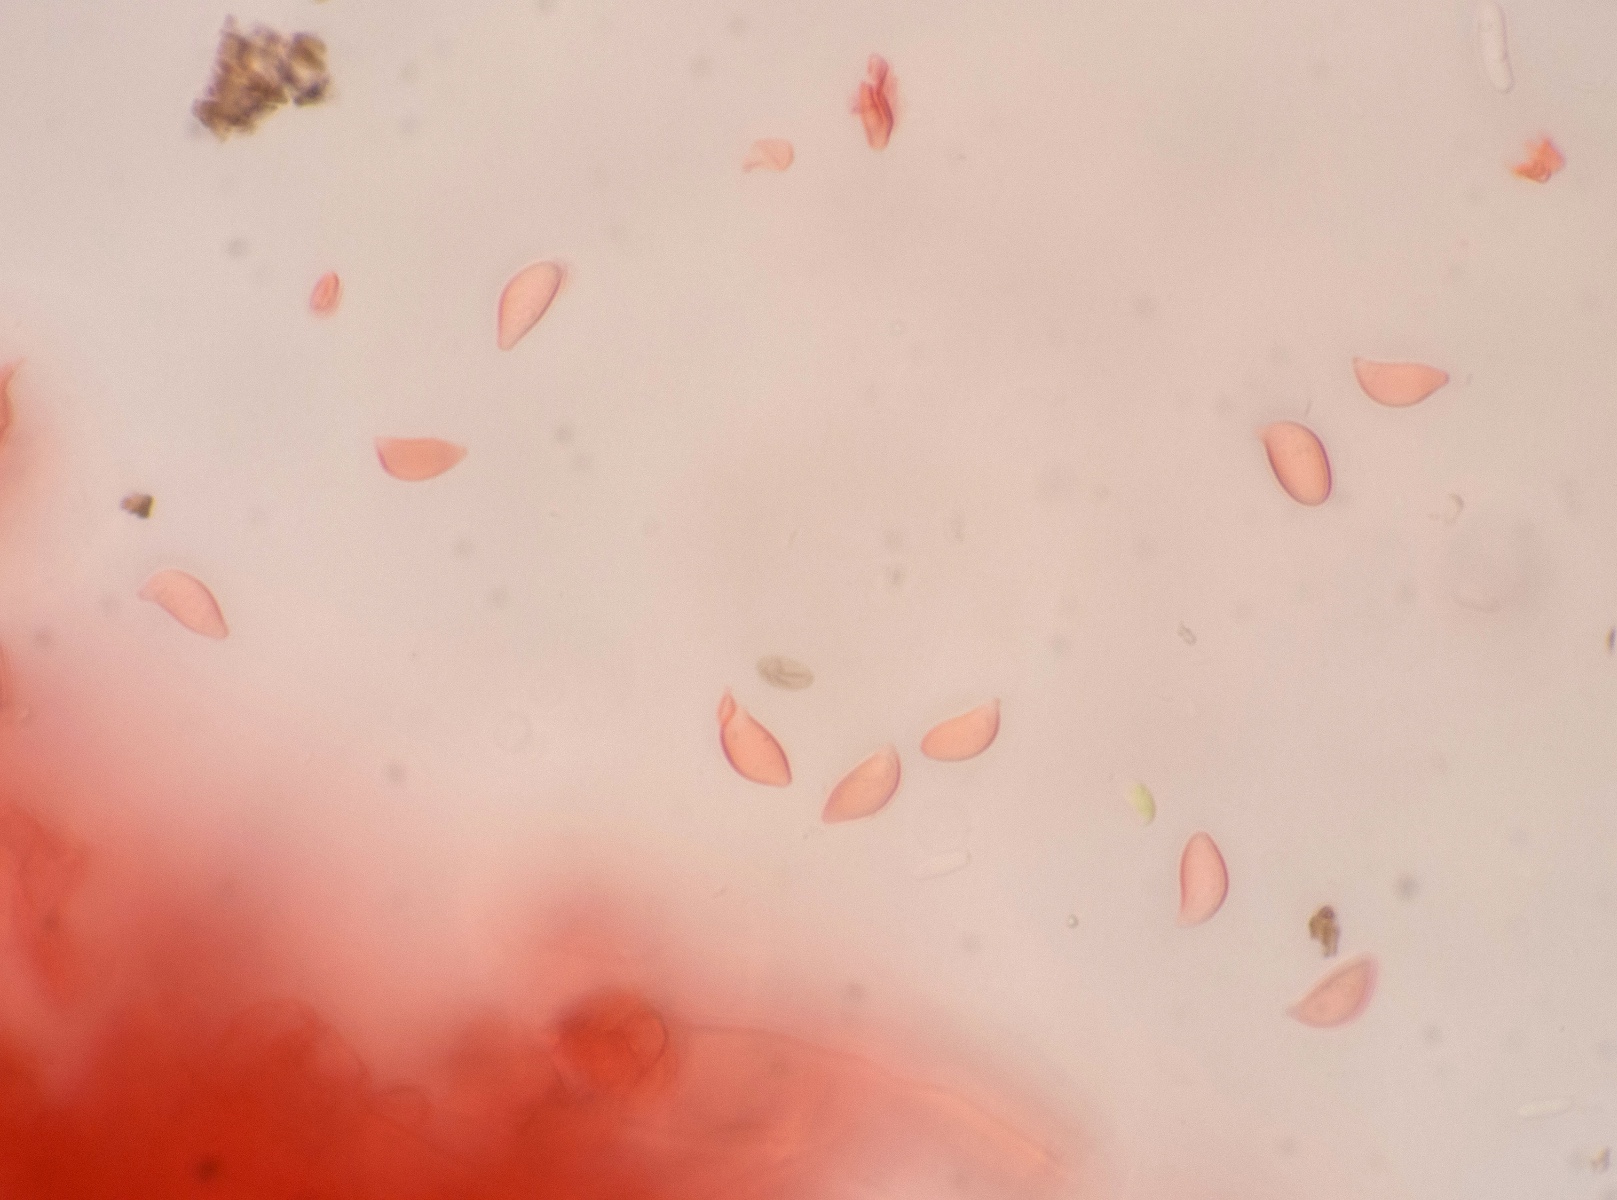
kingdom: Fungi
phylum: Basidiomycota
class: Agaricomycetes
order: Cantharellales
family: Botryobasidiaceae
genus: Botryobasidium
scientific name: Botryobasidium vagum
